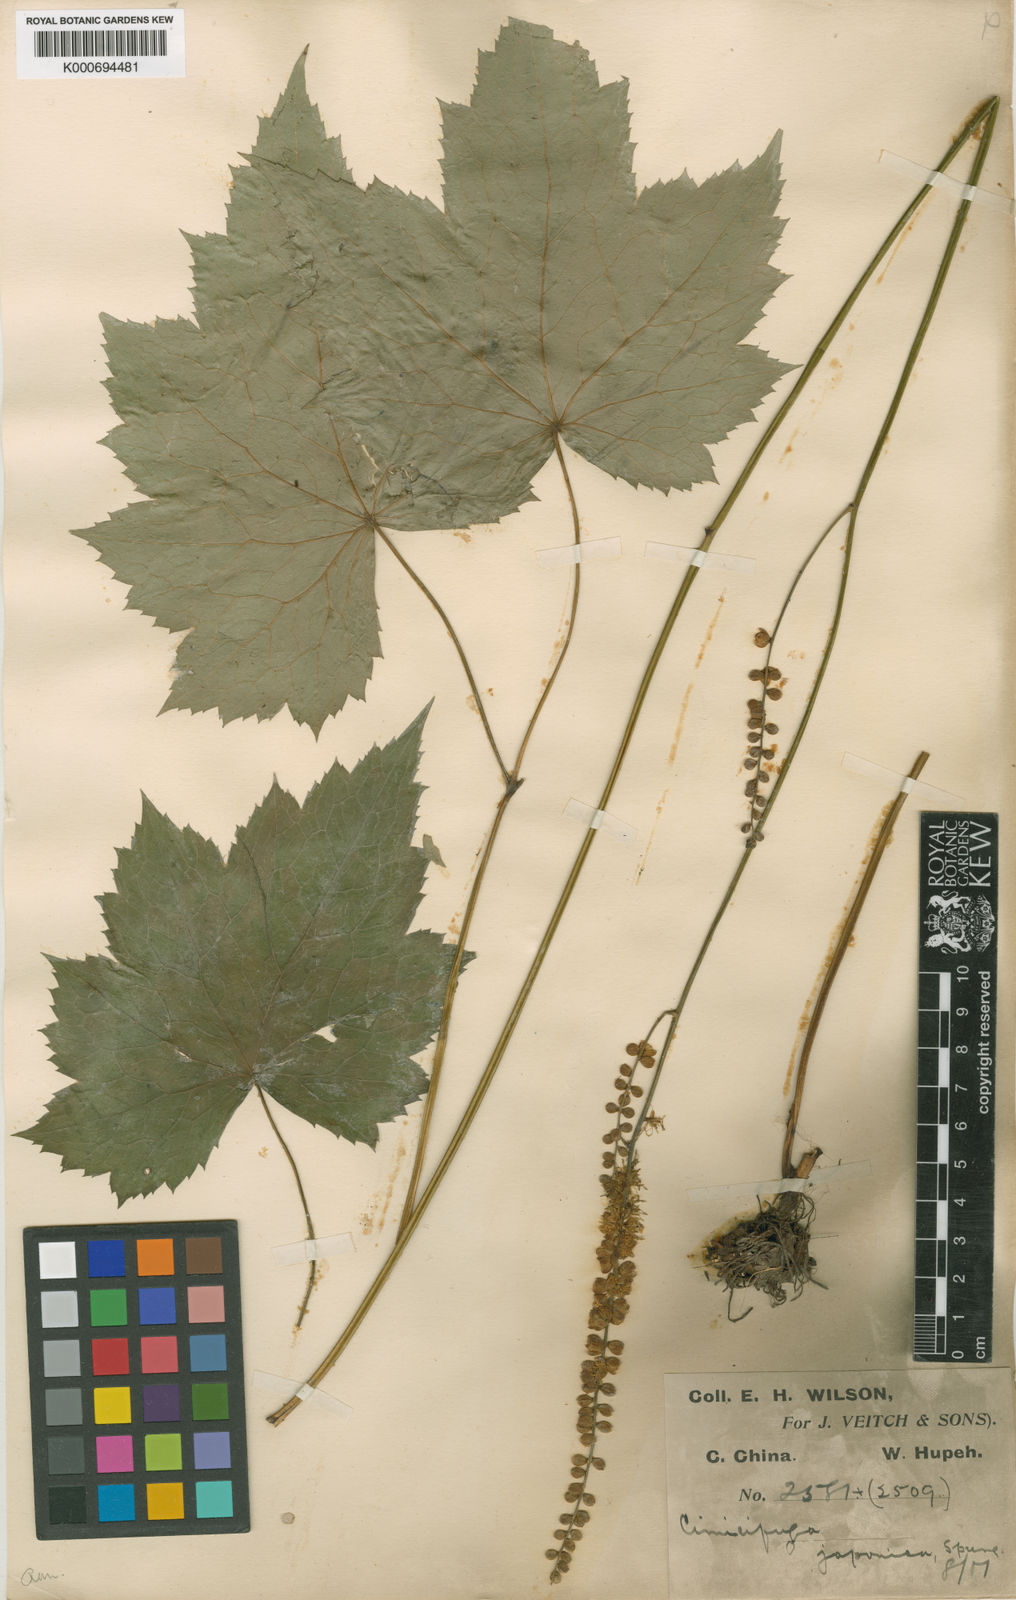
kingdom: Plantae
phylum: Tracheophyta
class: Magnoliopsida
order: Ranunculales
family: Ranunculaceae
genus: Actaea
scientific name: Actaea japonica
